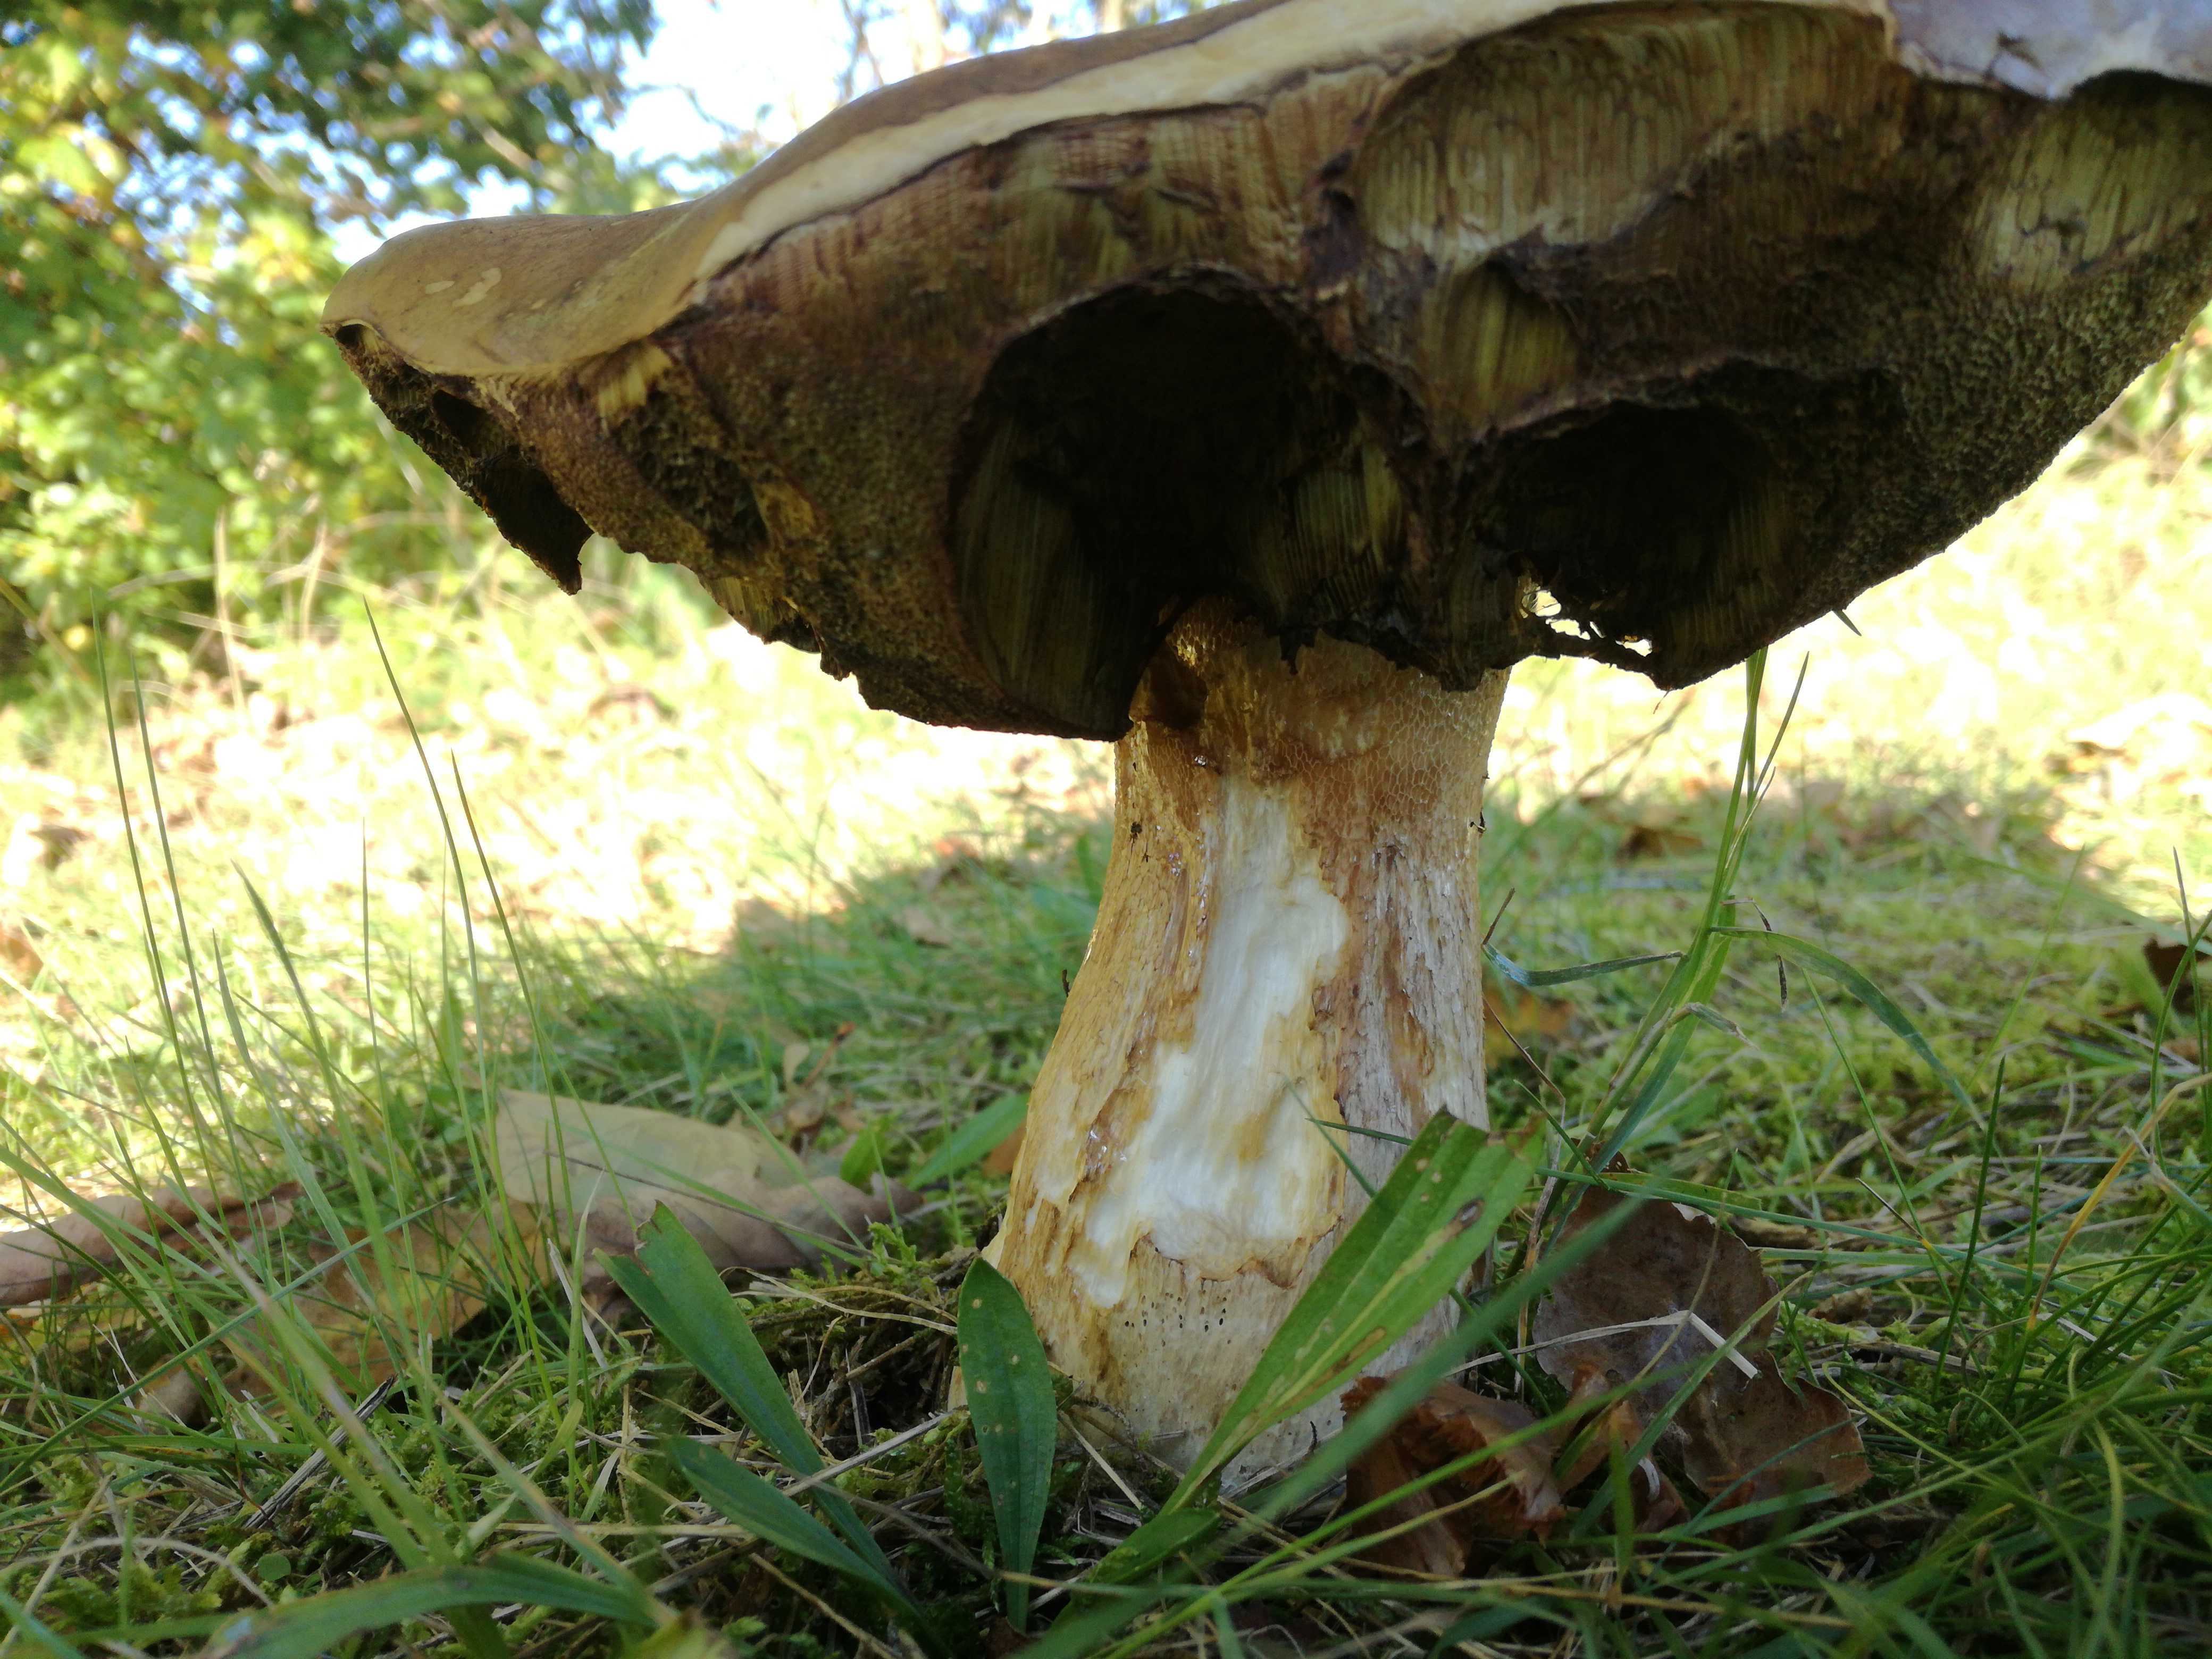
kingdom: Fungi
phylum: Basidiomycota
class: Agaricomycetes
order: Boletales
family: Boletaceae
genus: Boletus
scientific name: Boletus edulis
